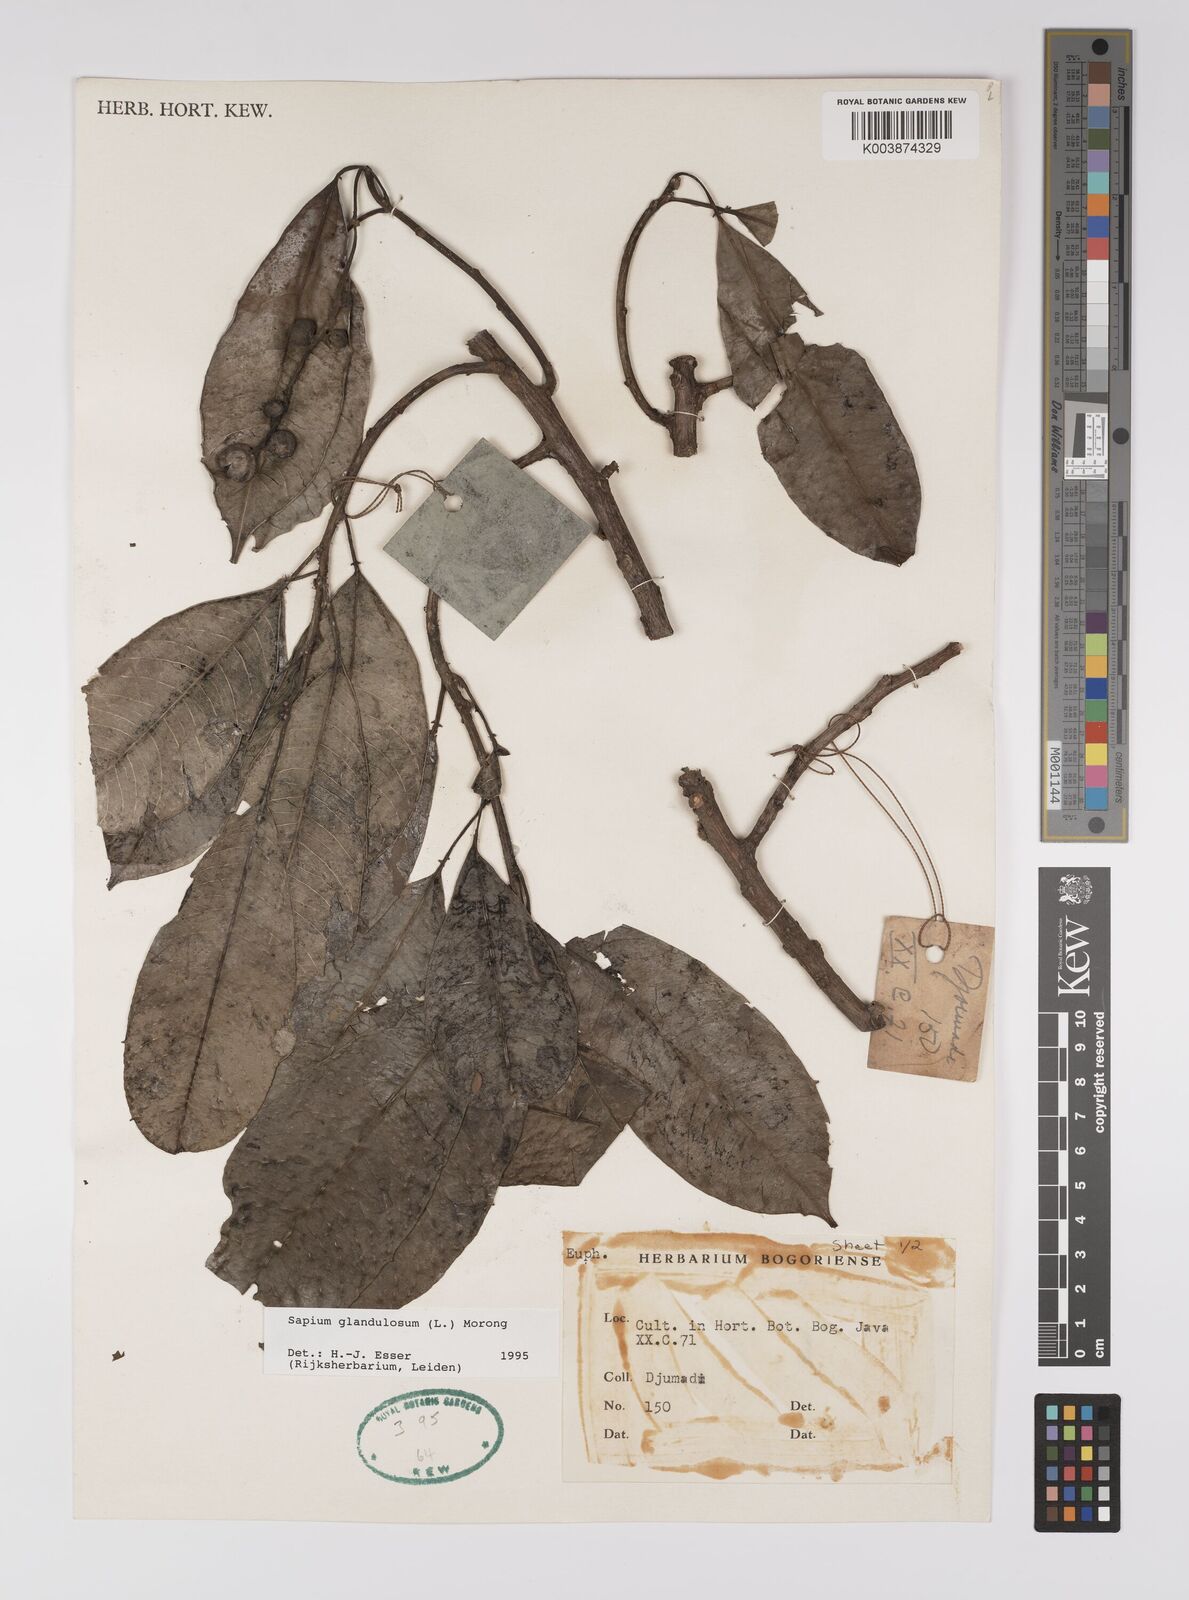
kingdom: Plantae
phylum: Tracheophyta
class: Magnoliopsida
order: Malpighiales
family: Euphorbiaceae
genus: Sapium
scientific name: Sapium
